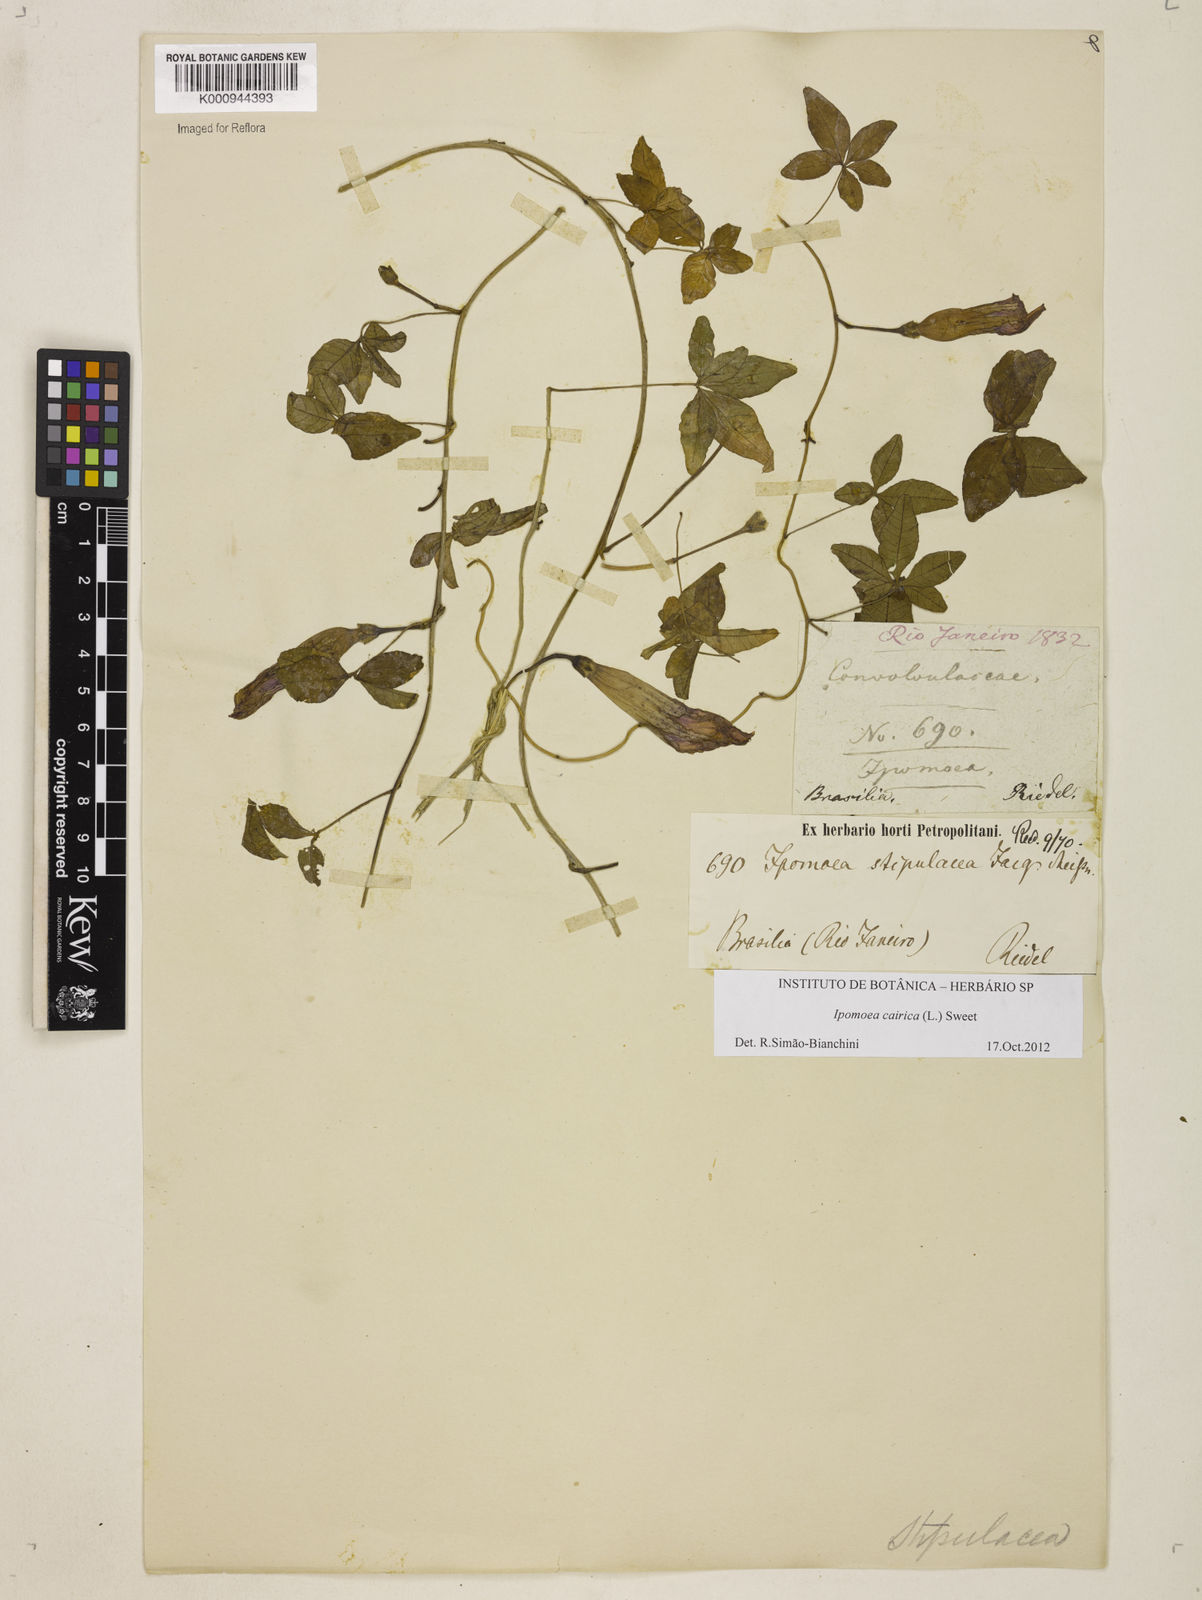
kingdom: Plantae
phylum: Tracheophyta
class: Magnoliopsida
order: Solanales
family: Convolvulaceae
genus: Ipomoea
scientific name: Ipomoea cairica
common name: Mile a minute vine
